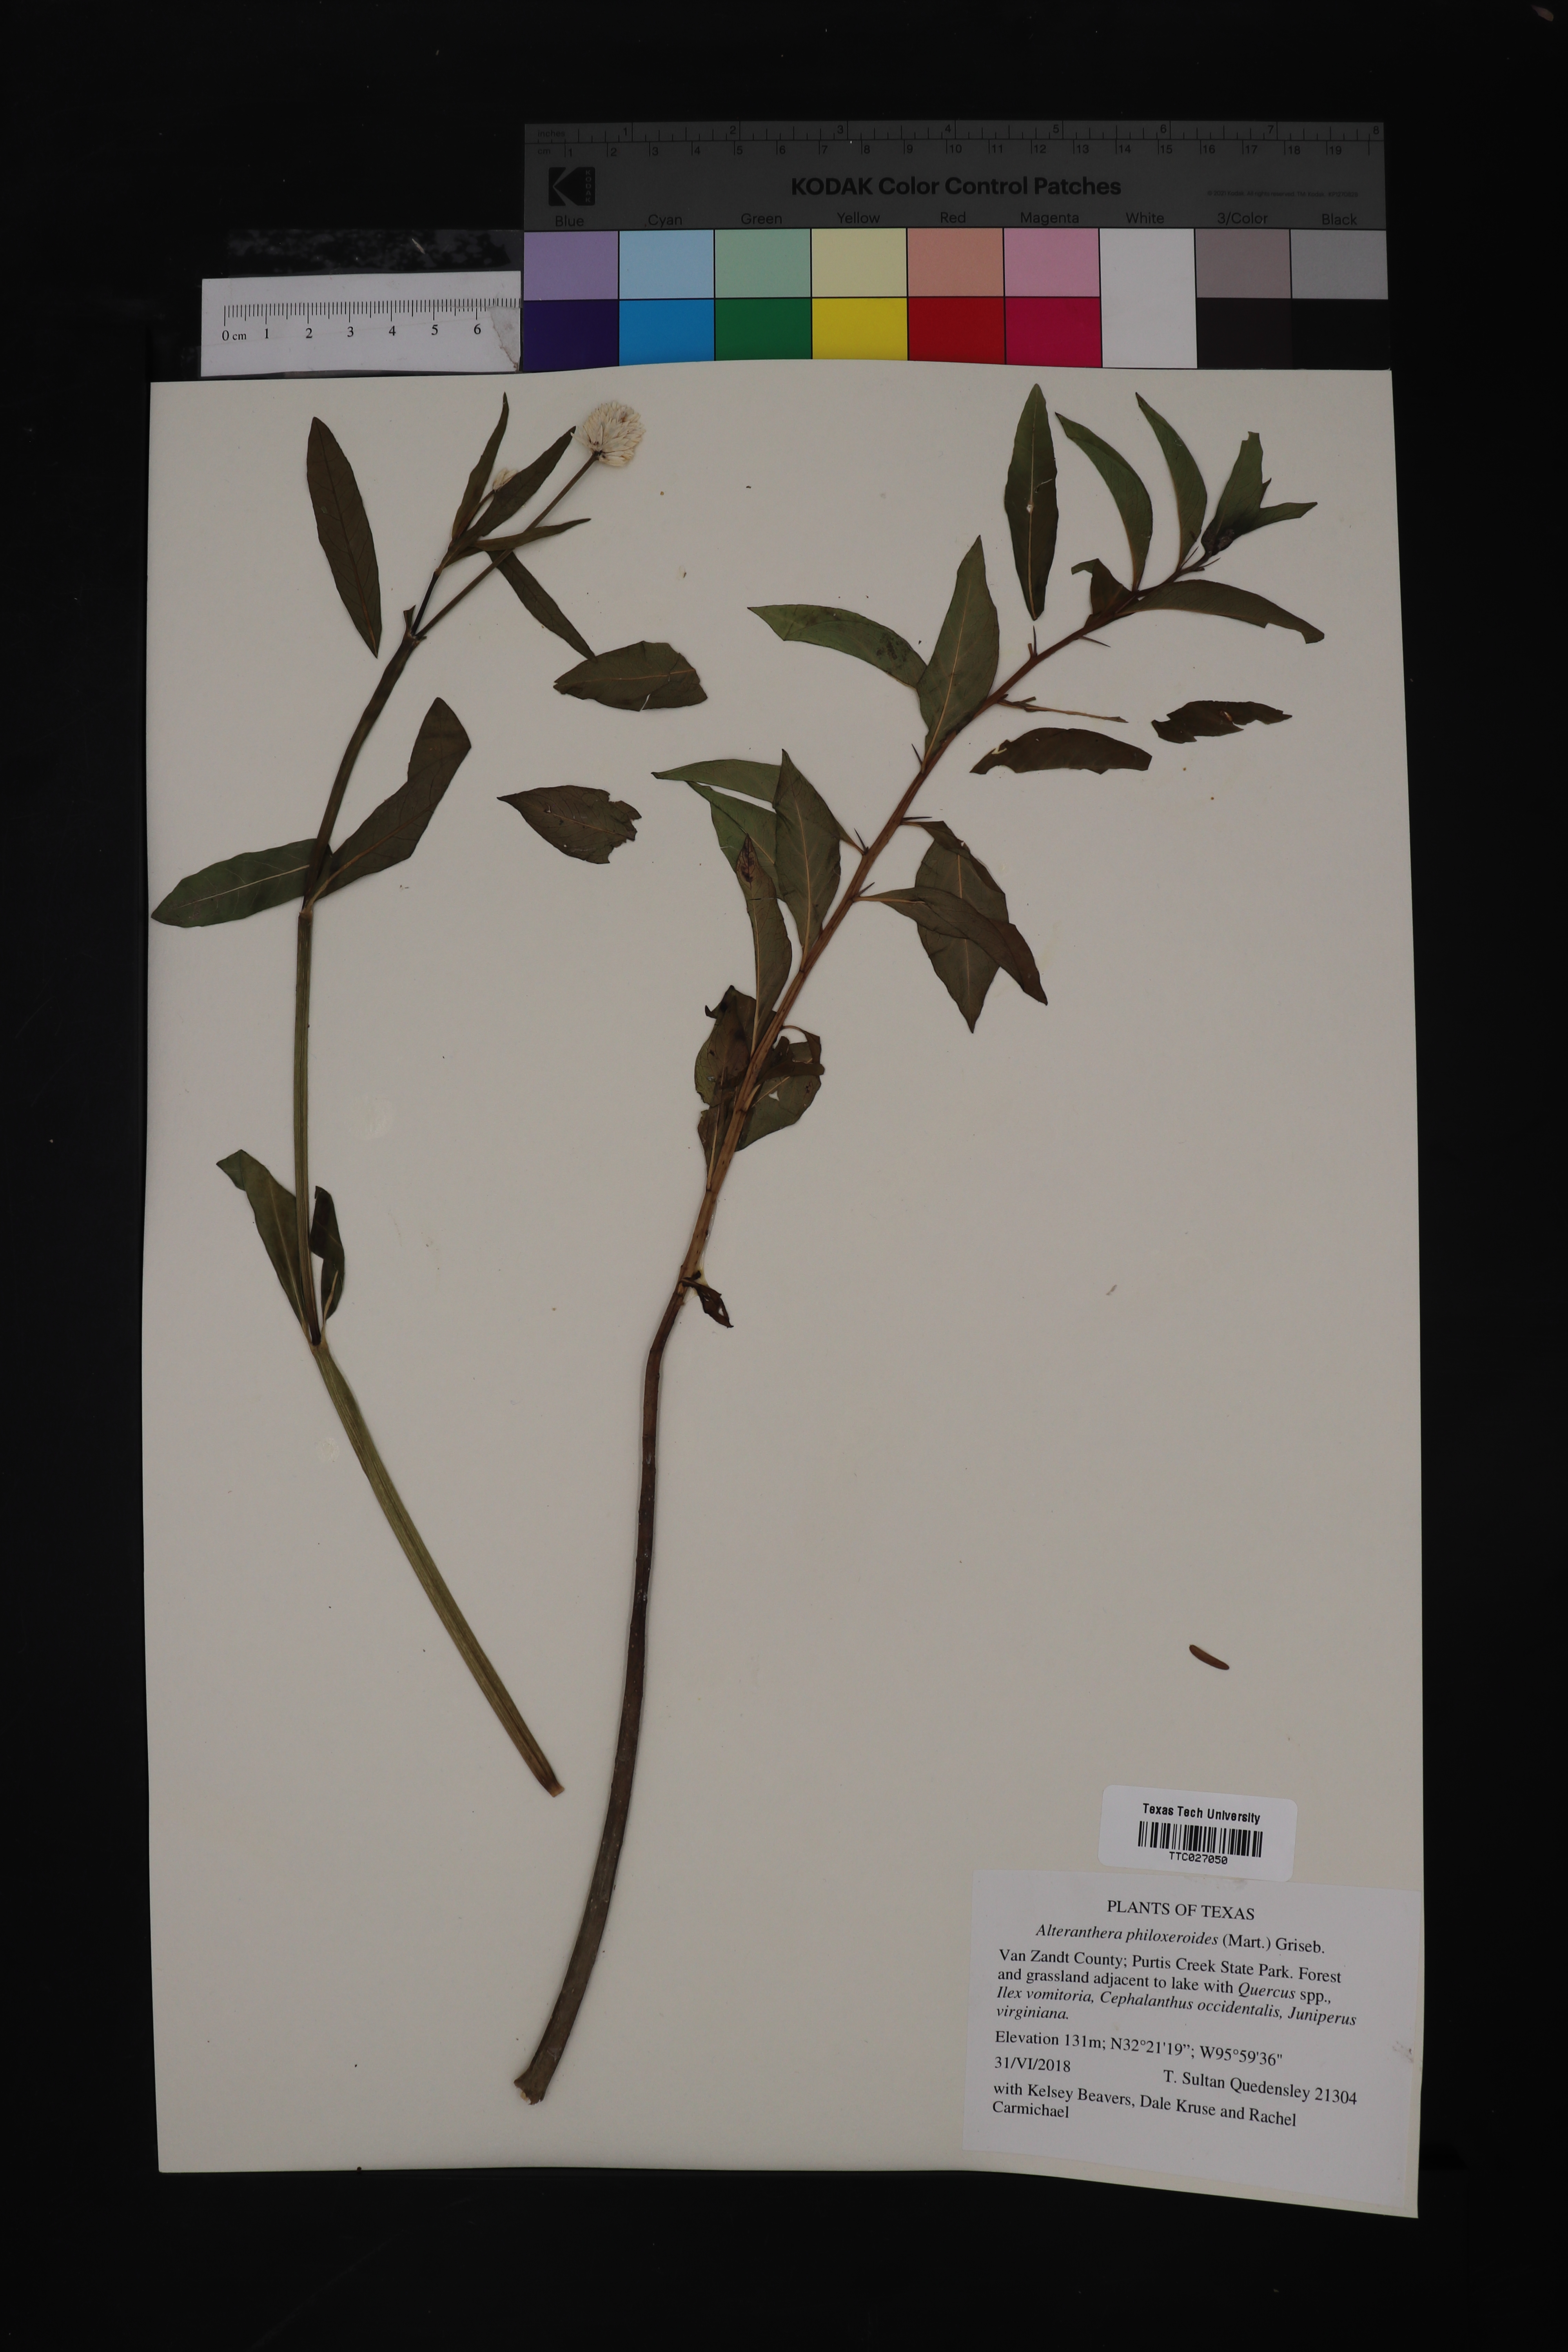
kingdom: Plantae
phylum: Tracheophyta
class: Magnoliopsida
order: Caryophyllales
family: Amaranthaceae
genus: Alternanthera
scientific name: Alternanthera philoxeroides
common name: Alligatorweed
